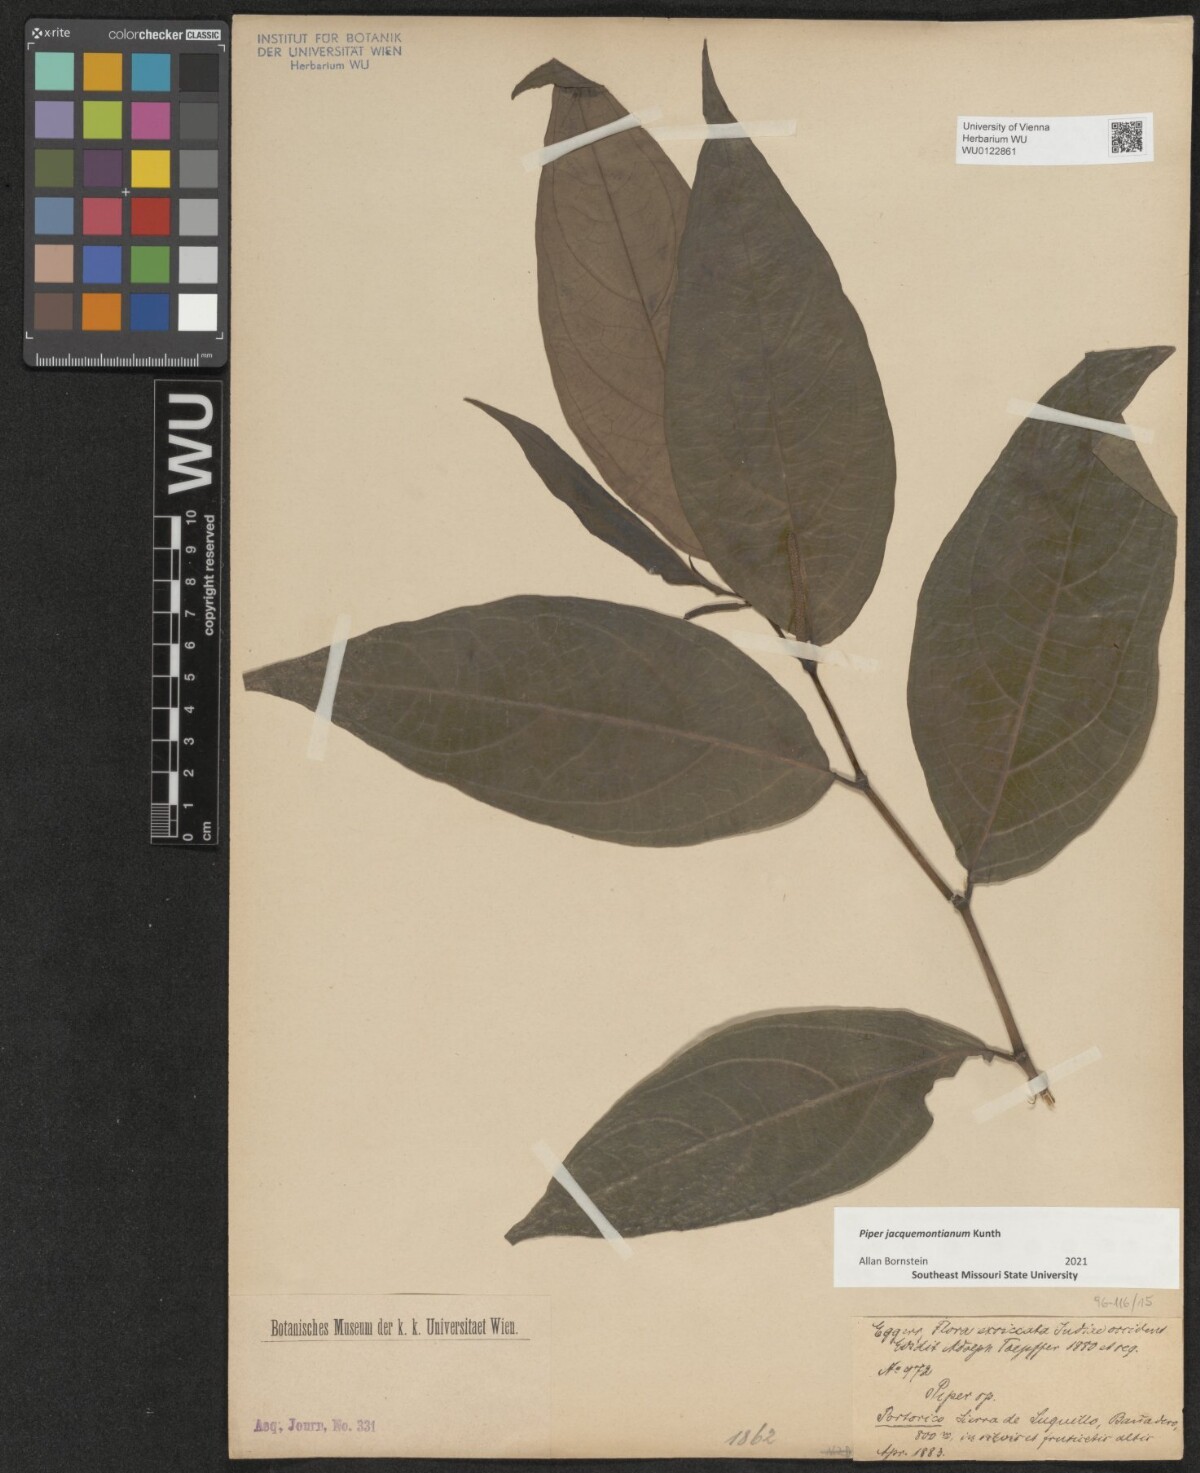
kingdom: Plantae
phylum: Tracheophyta
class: Magnoliopsida
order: Piperales
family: Piperaceae
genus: Piper
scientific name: Piper jacquemontianum
